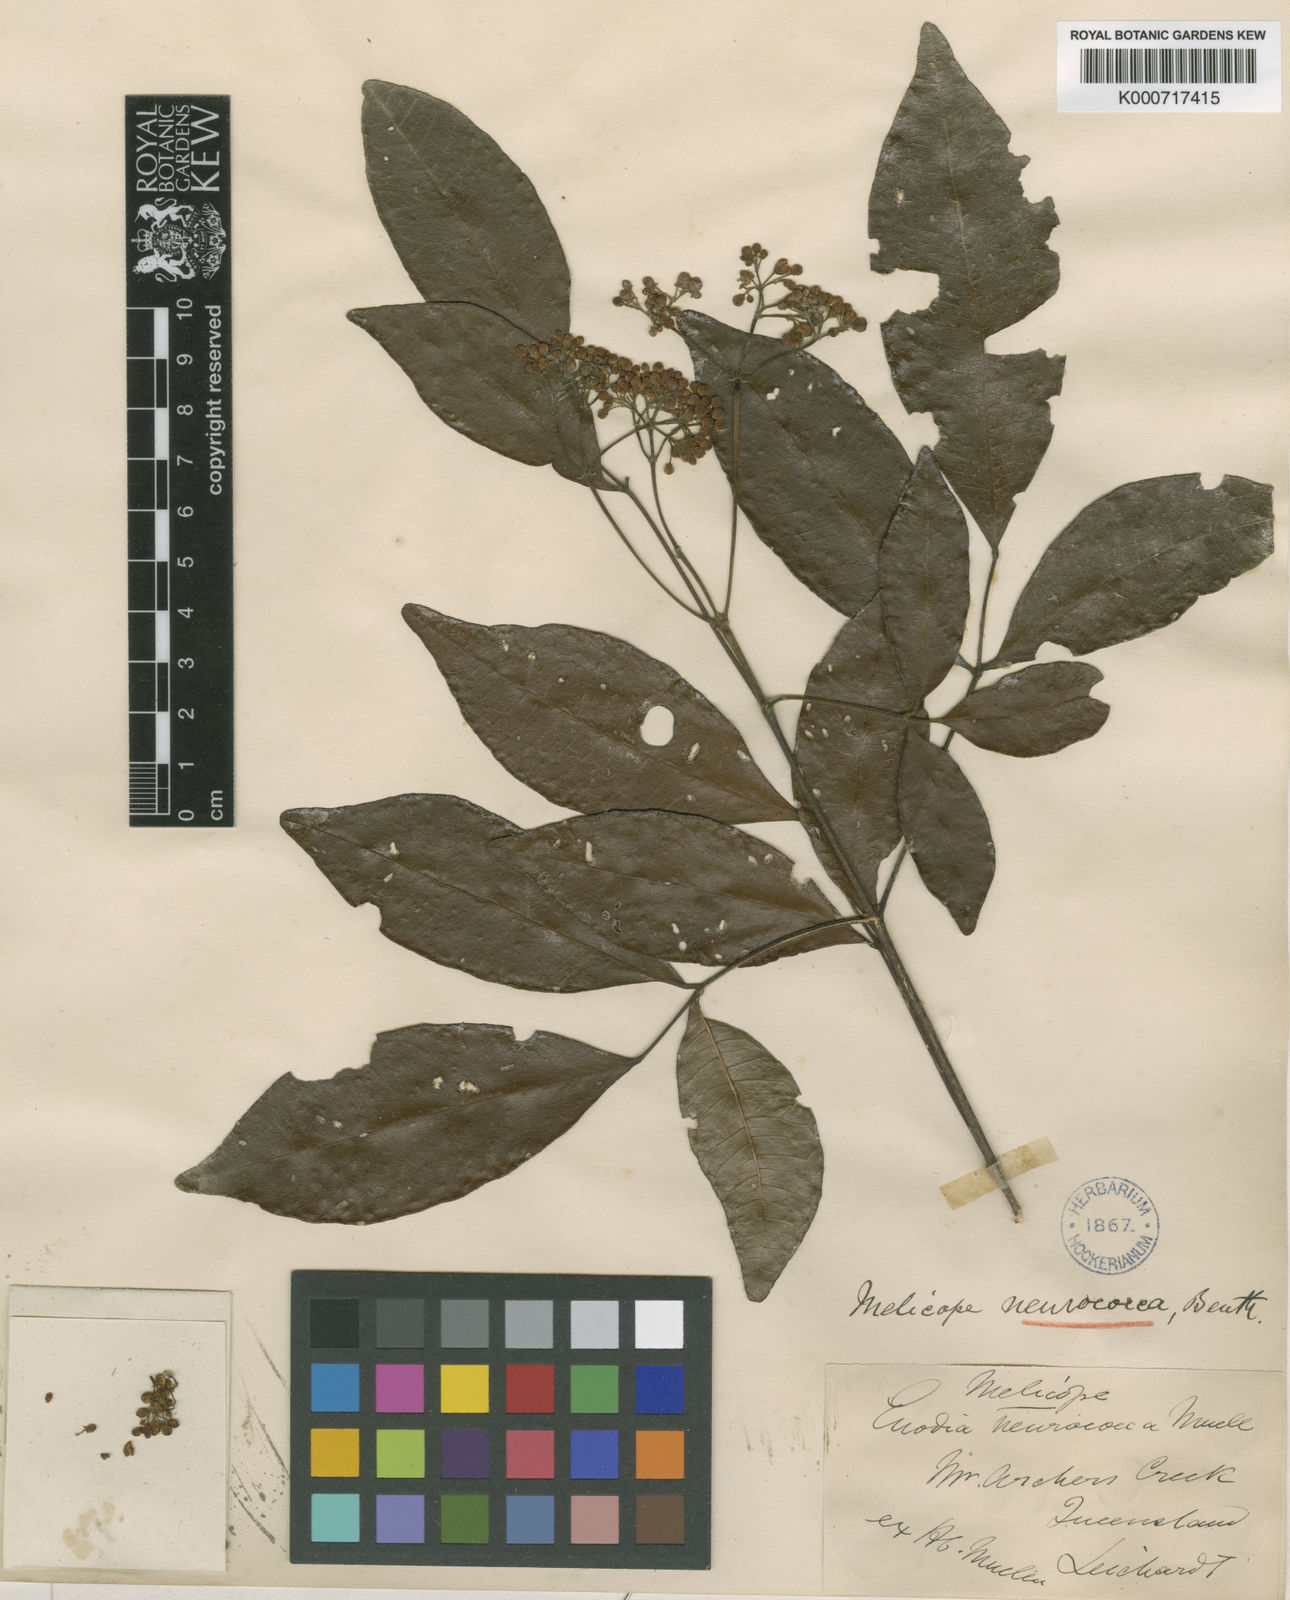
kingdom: Plantae
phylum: Tracheophyta
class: Magnoliopsida
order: Sapindales
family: Rutaceae
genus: Bouchardatia
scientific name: Bouchardatia neurococca
